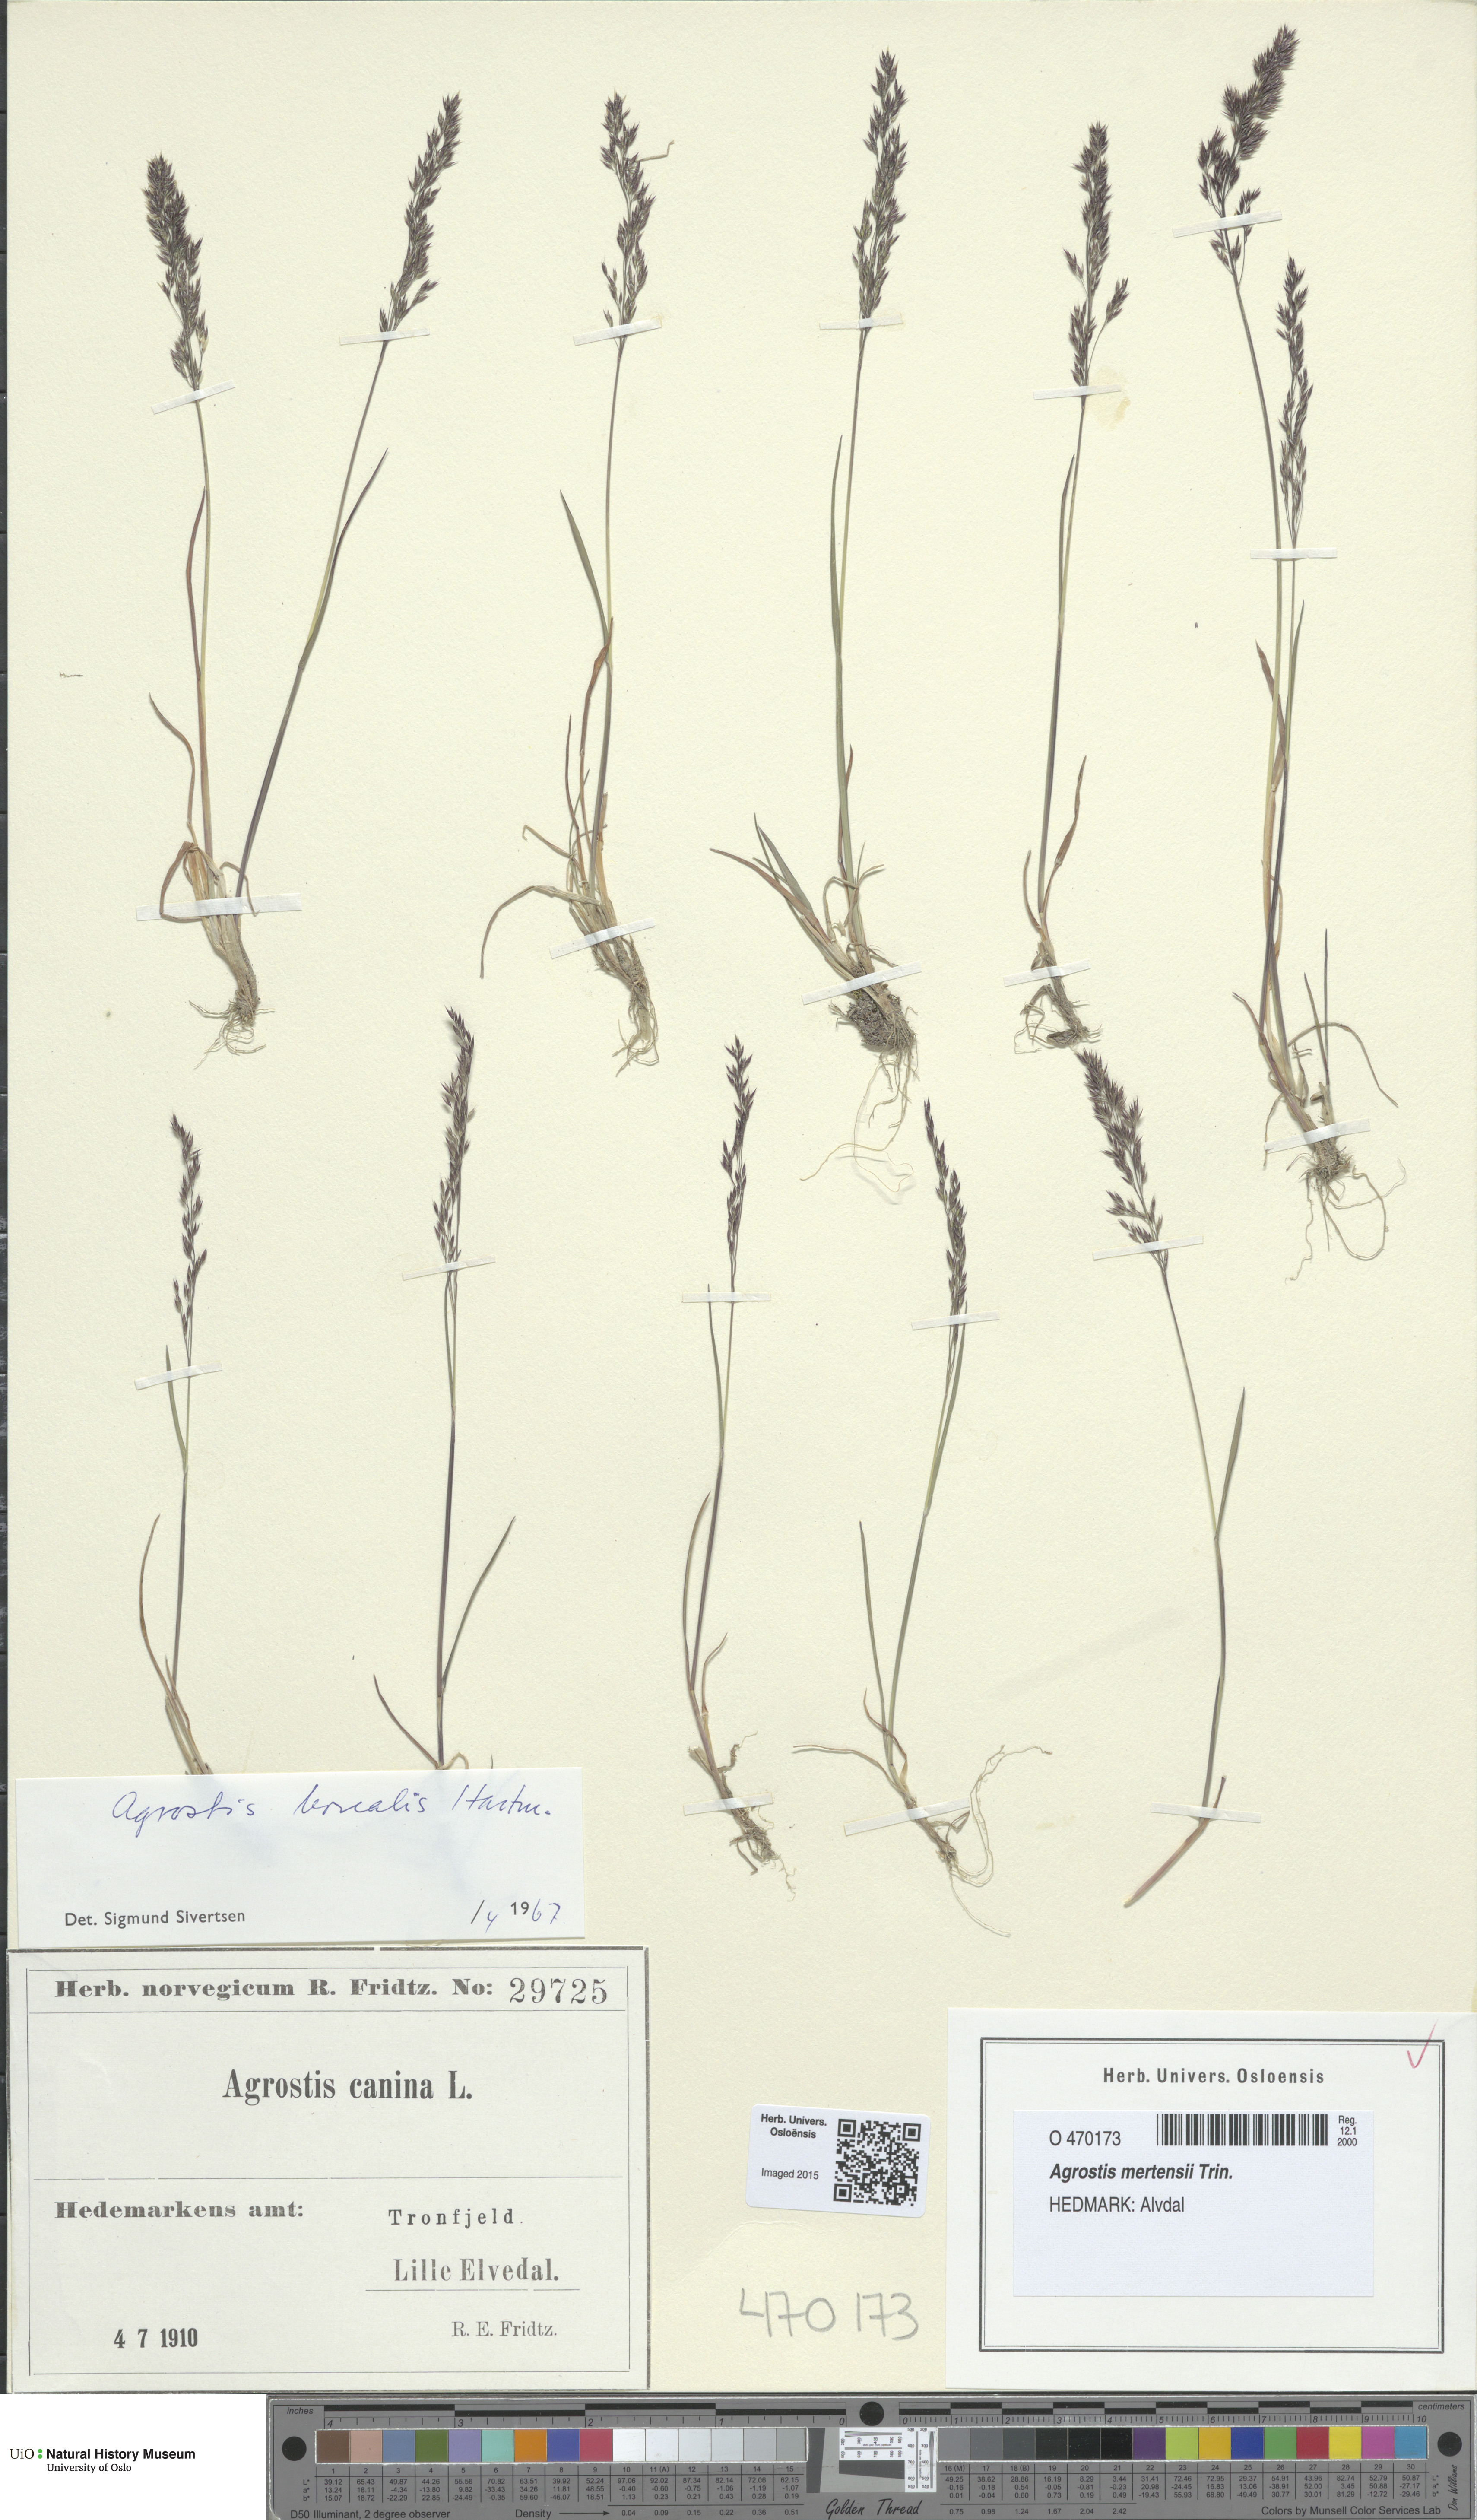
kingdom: Plantae
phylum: Tracheophyta
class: Liliopsida
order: Poales
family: Poaceae
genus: Agrostis
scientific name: Agrostis mertensii
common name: Northern bent
